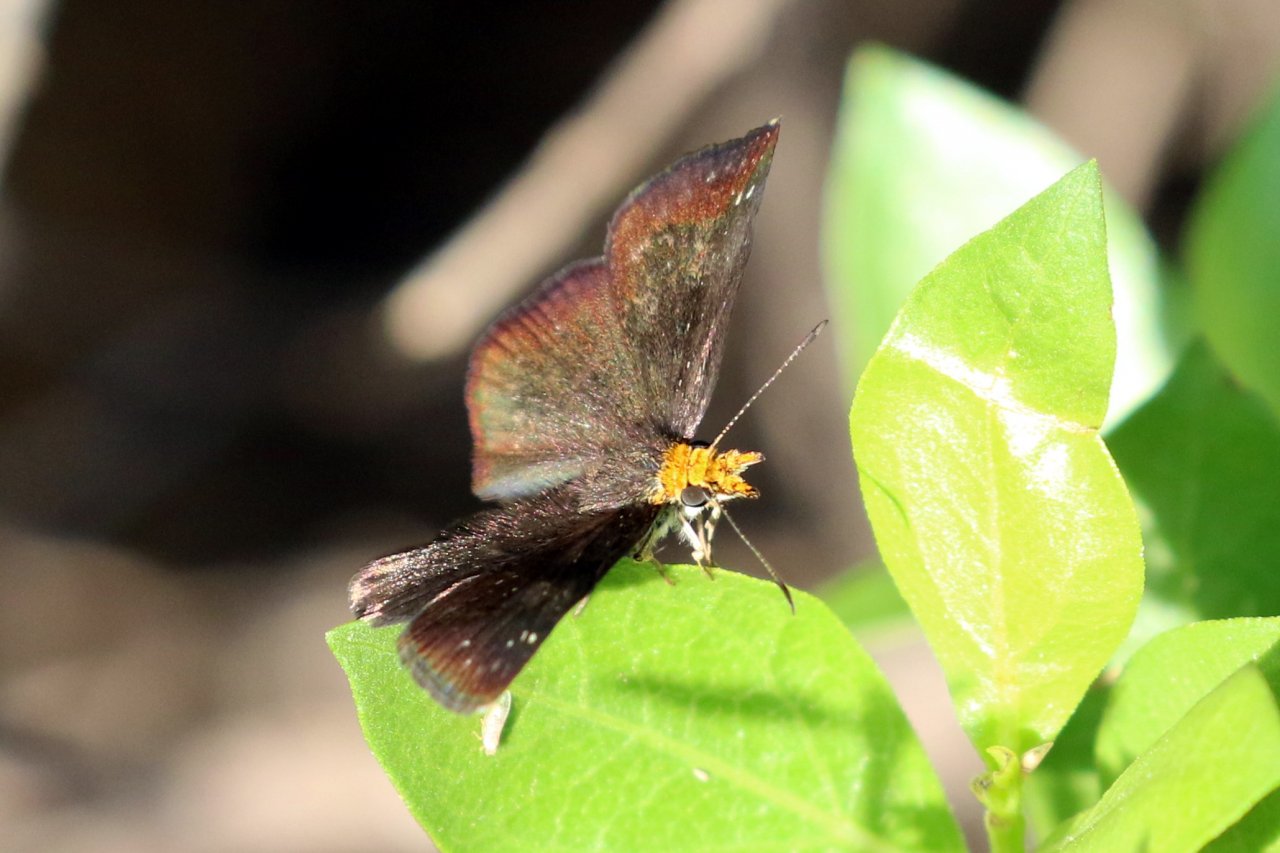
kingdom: Animalia
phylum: Arthropoda
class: Insecta
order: Lepidoptera
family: Hesperiidae
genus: Staphylus
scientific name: Staphylus ceos
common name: Golden-headed Scallopwing
